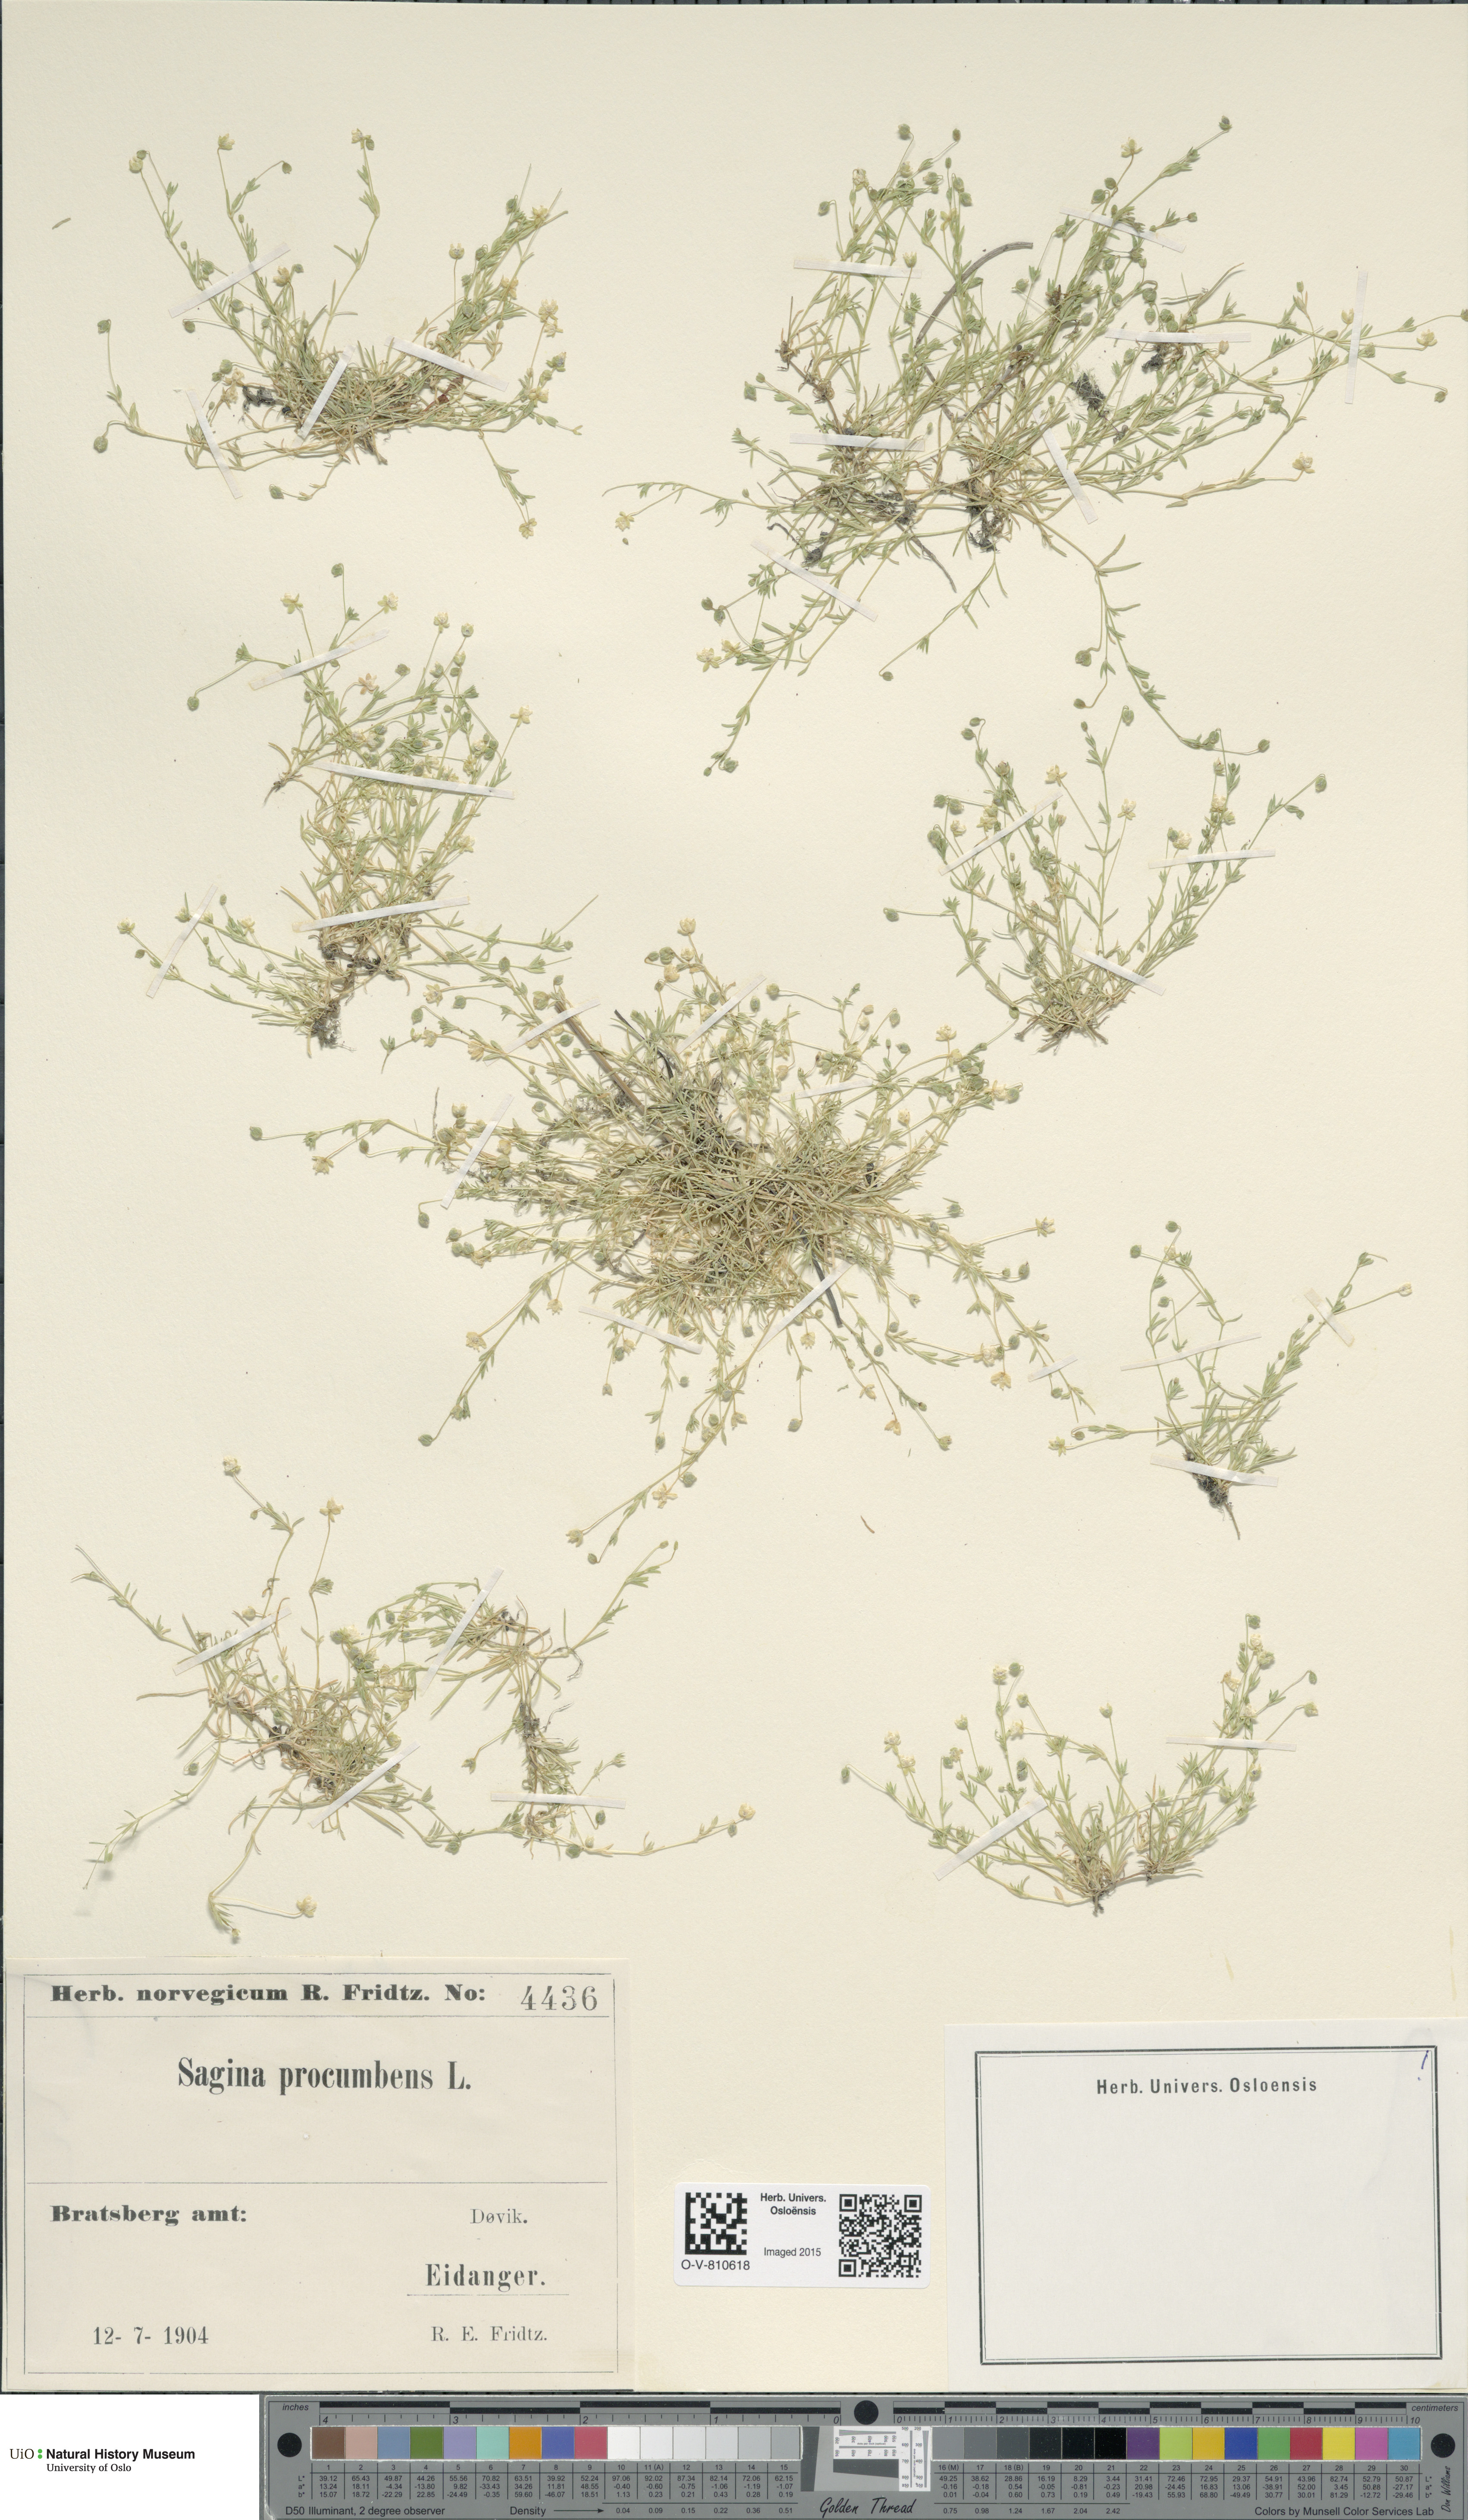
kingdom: Plantae
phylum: Tracheophyta
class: Magnoliopsida
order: Caryophyllales
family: Caryophyllaceae
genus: Sagina
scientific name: Sagina procumbens
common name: Procumbent pearlwort
